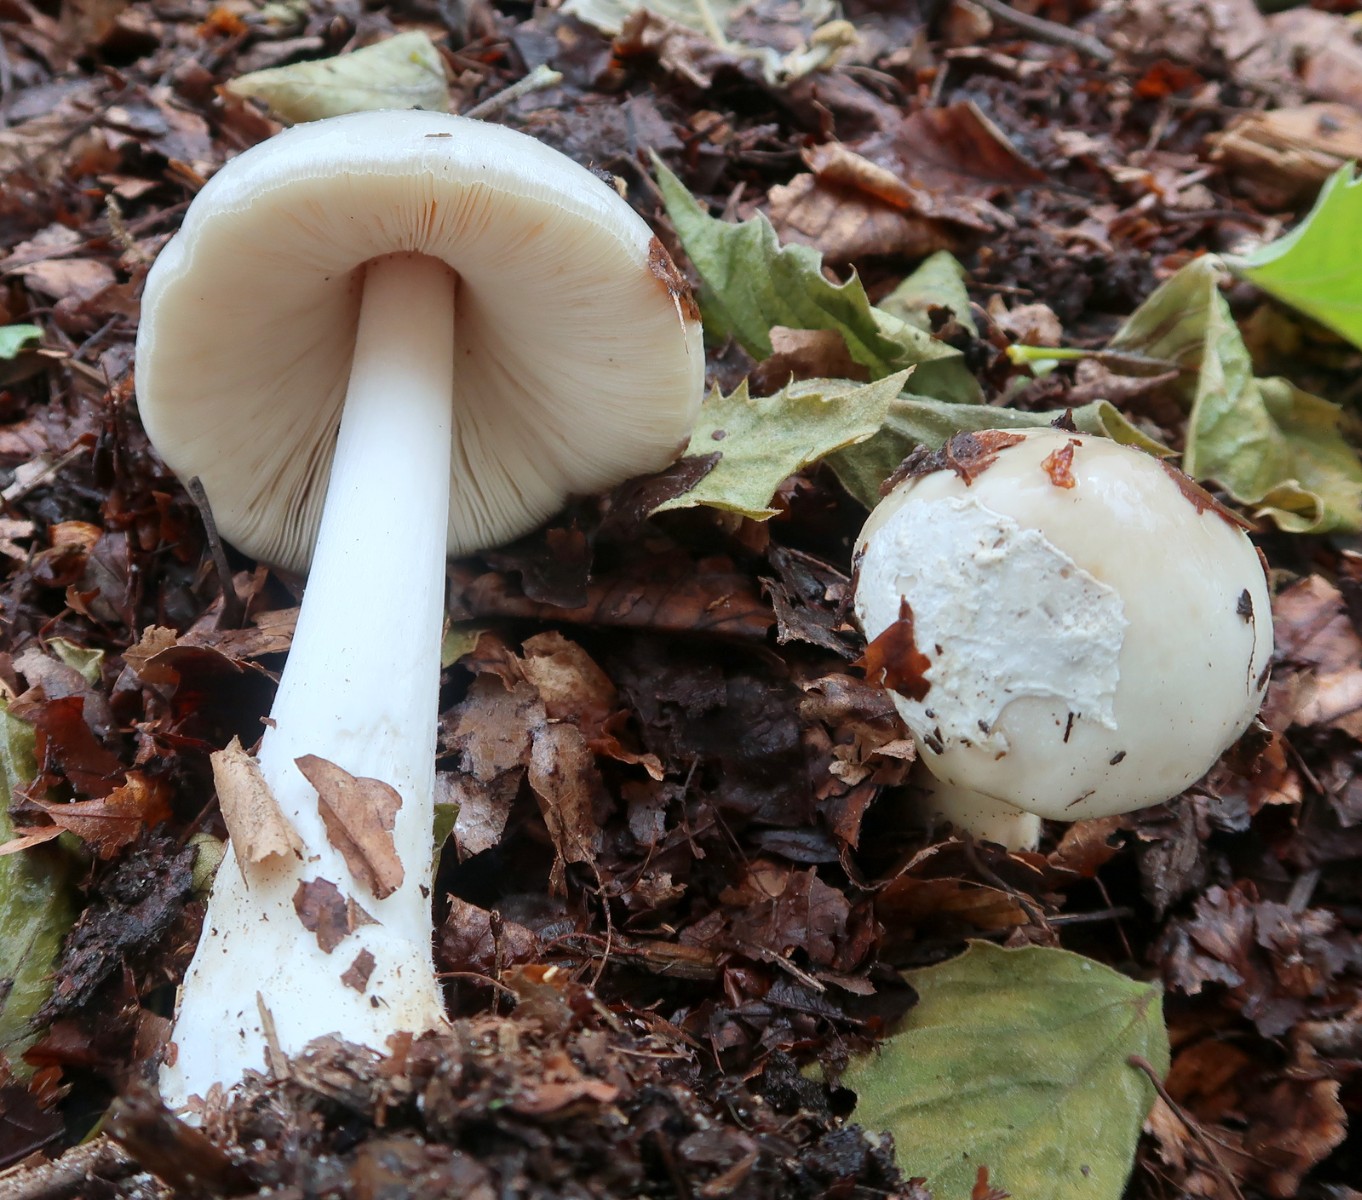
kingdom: Fungi
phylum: Basidiomycota
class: Agaricomycetes
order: Agaricales
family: Pluteaceae
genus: Volvopluteus
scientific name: Volvopluteus gloiocephalus
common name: høj posesvamp
